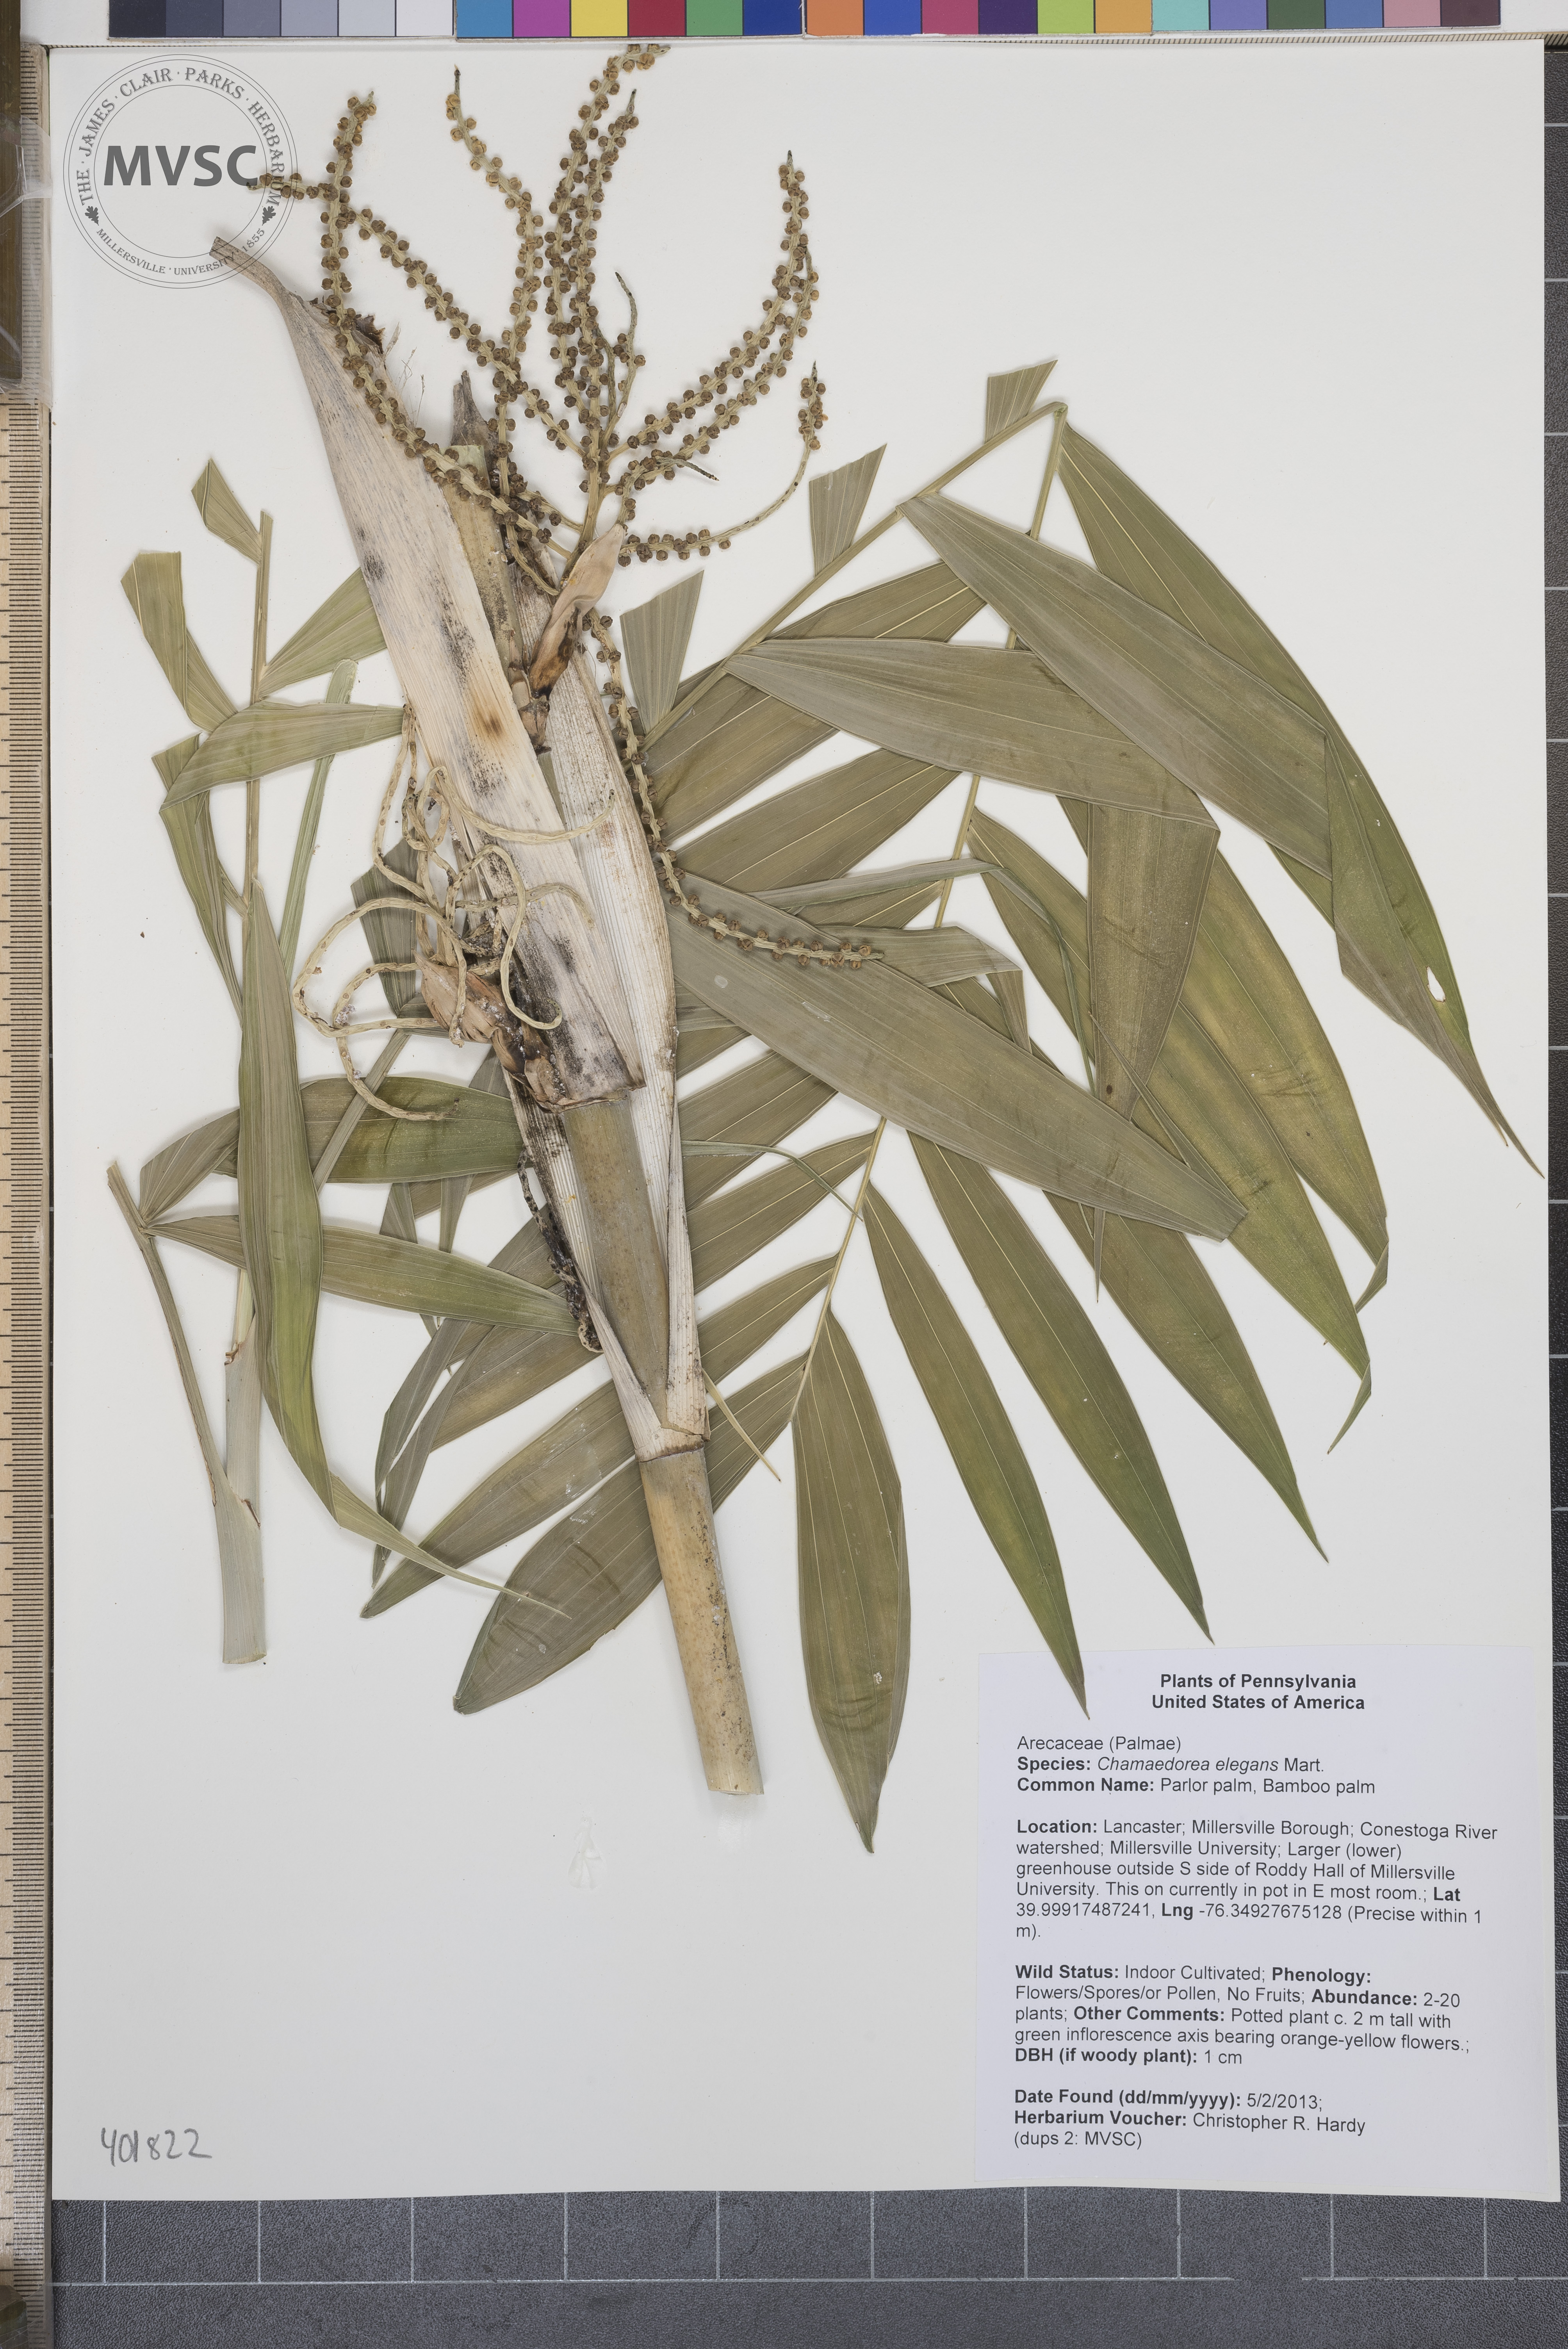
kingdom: Plantae
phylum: Tracheophyta
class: Liliopsida
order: Arecales
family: Arecaceae
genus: Chamaedorea
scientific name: Chamaedorea elegans
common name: Bamboo palm
